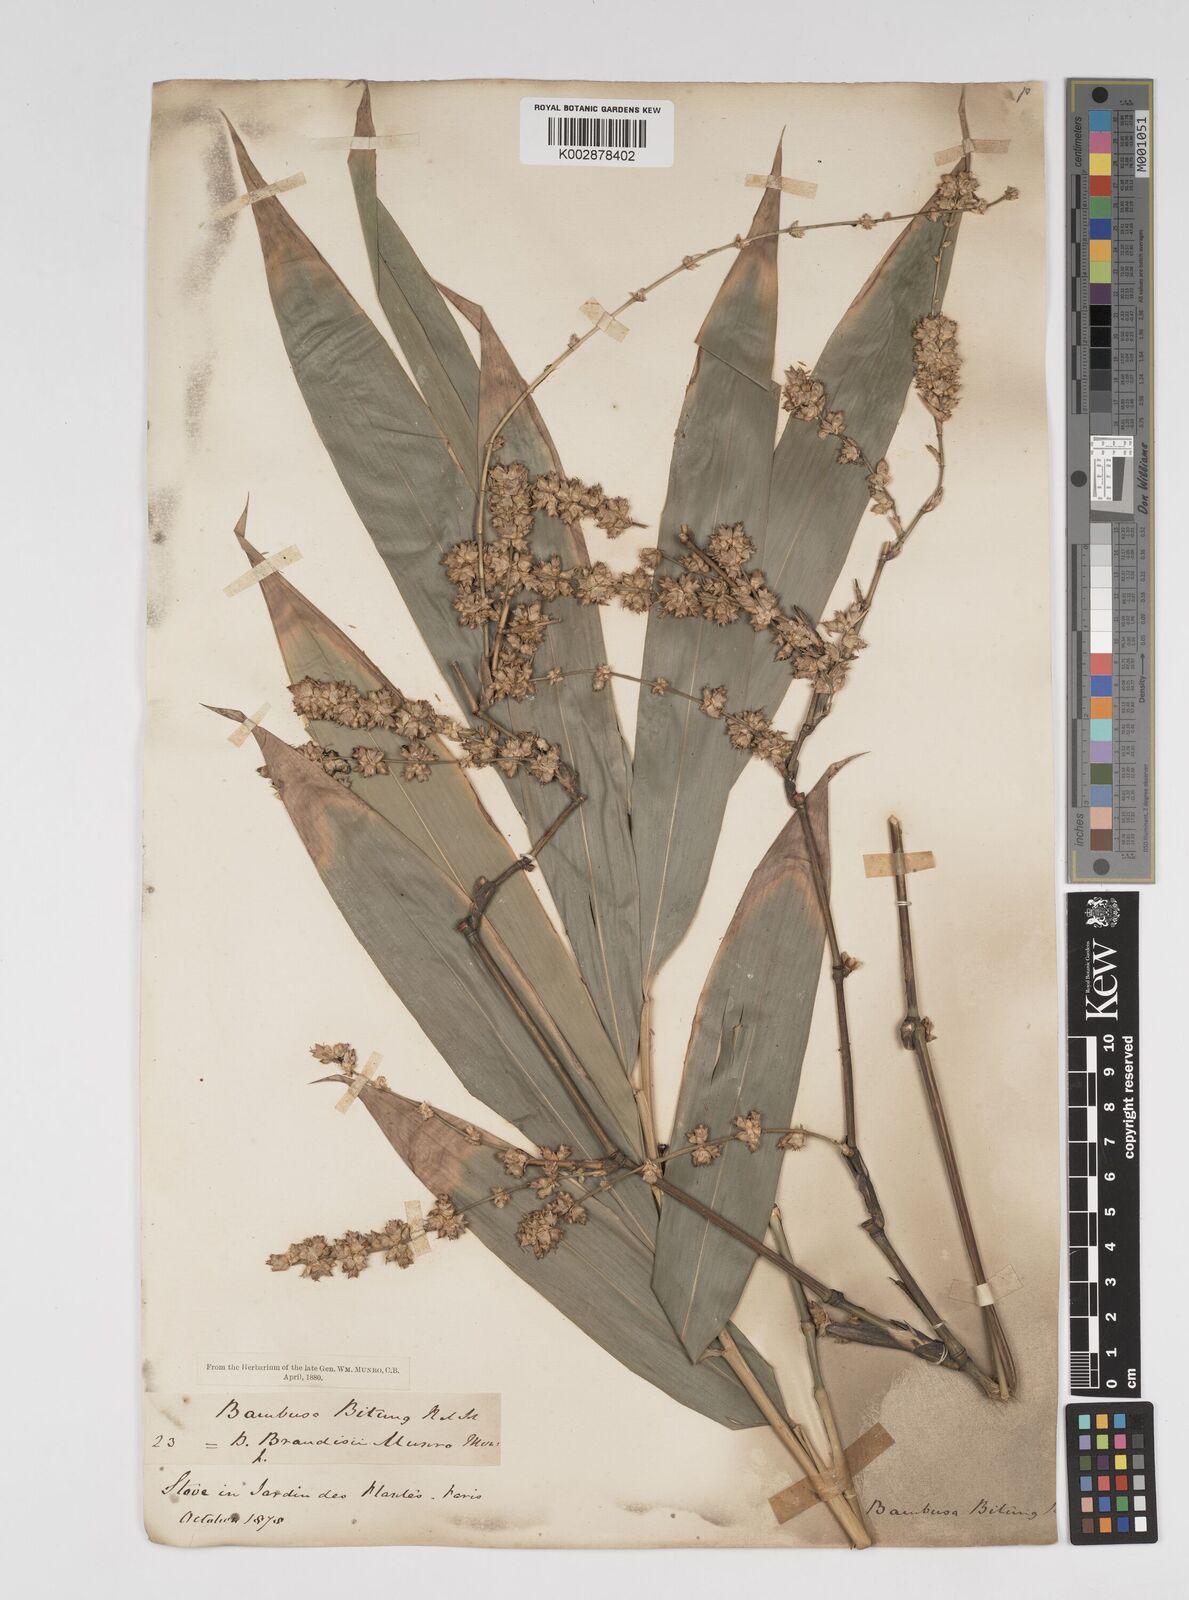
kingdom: Plantae
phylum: Tracheophyta
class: Liliopsida
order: Poales
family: Poaceae
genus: Dendrocalamus
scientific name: Dendrocalamus brandisii
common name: Velvetleaf bamboo
